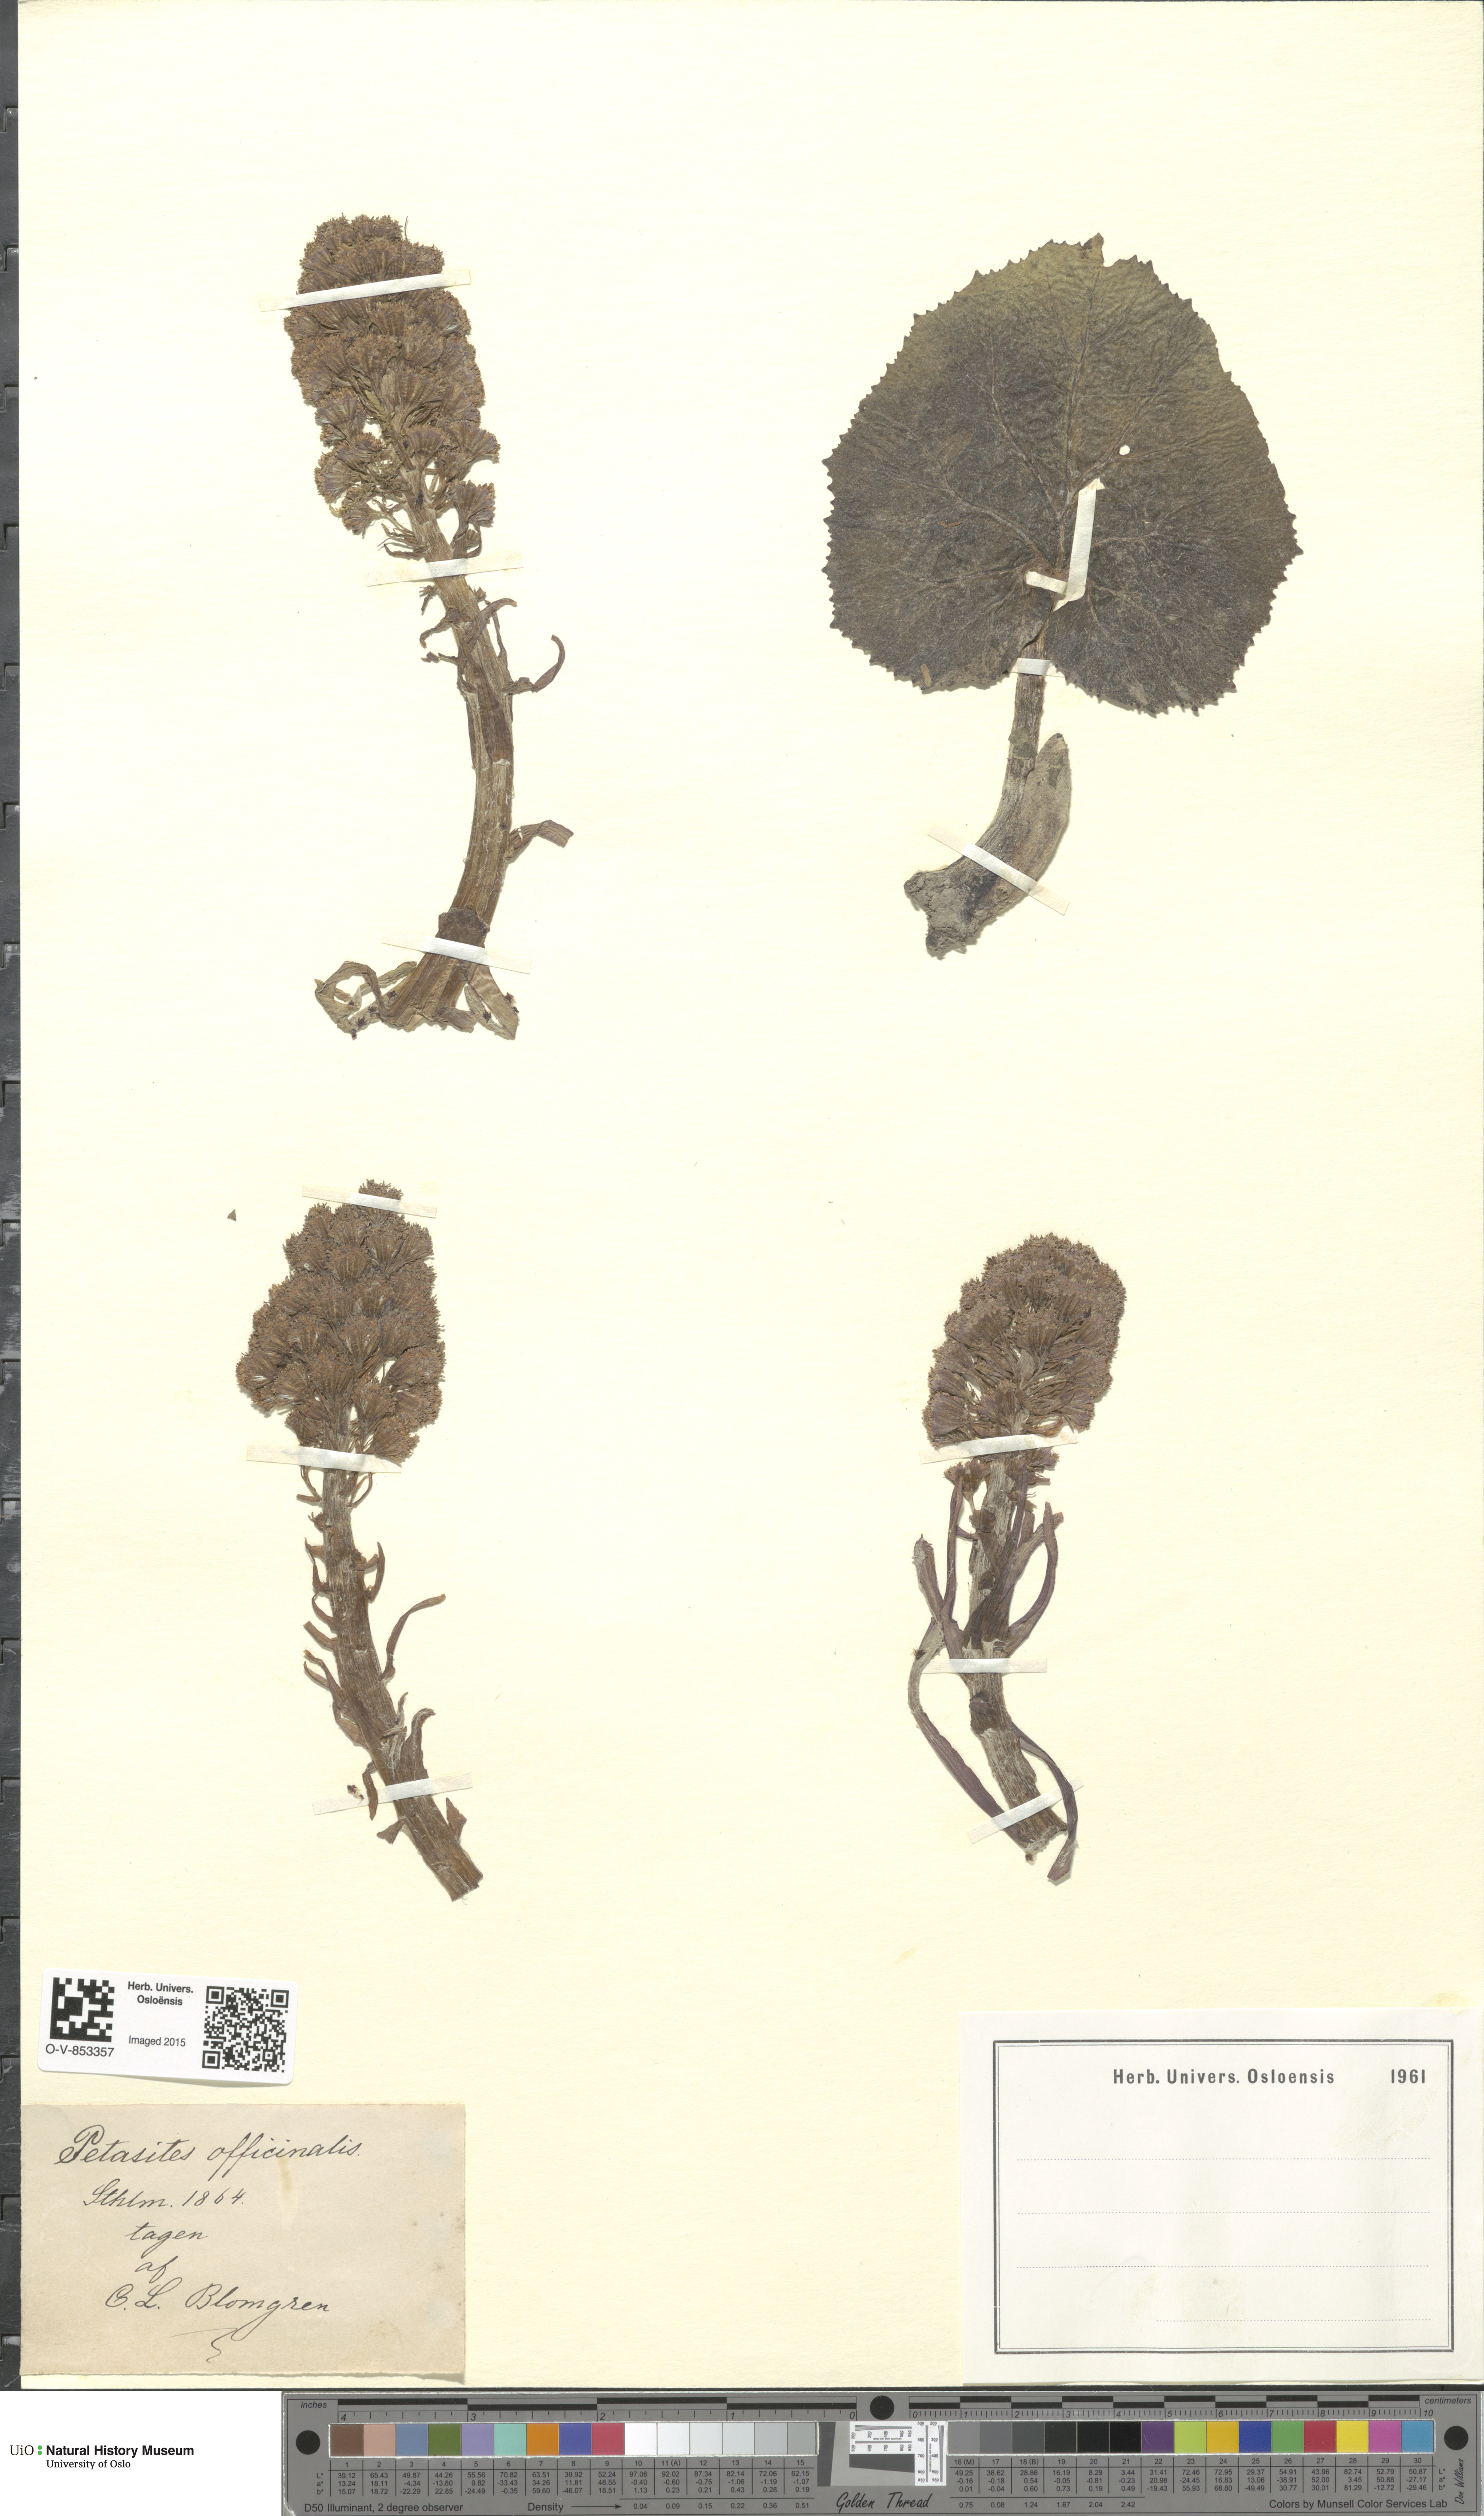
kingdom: Plantae
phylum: Tracheophyta
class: Magnoliopsida
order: Asterales
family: Asteraceae
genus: Petasites
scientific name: Petasites hybridus
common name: Butterbur
